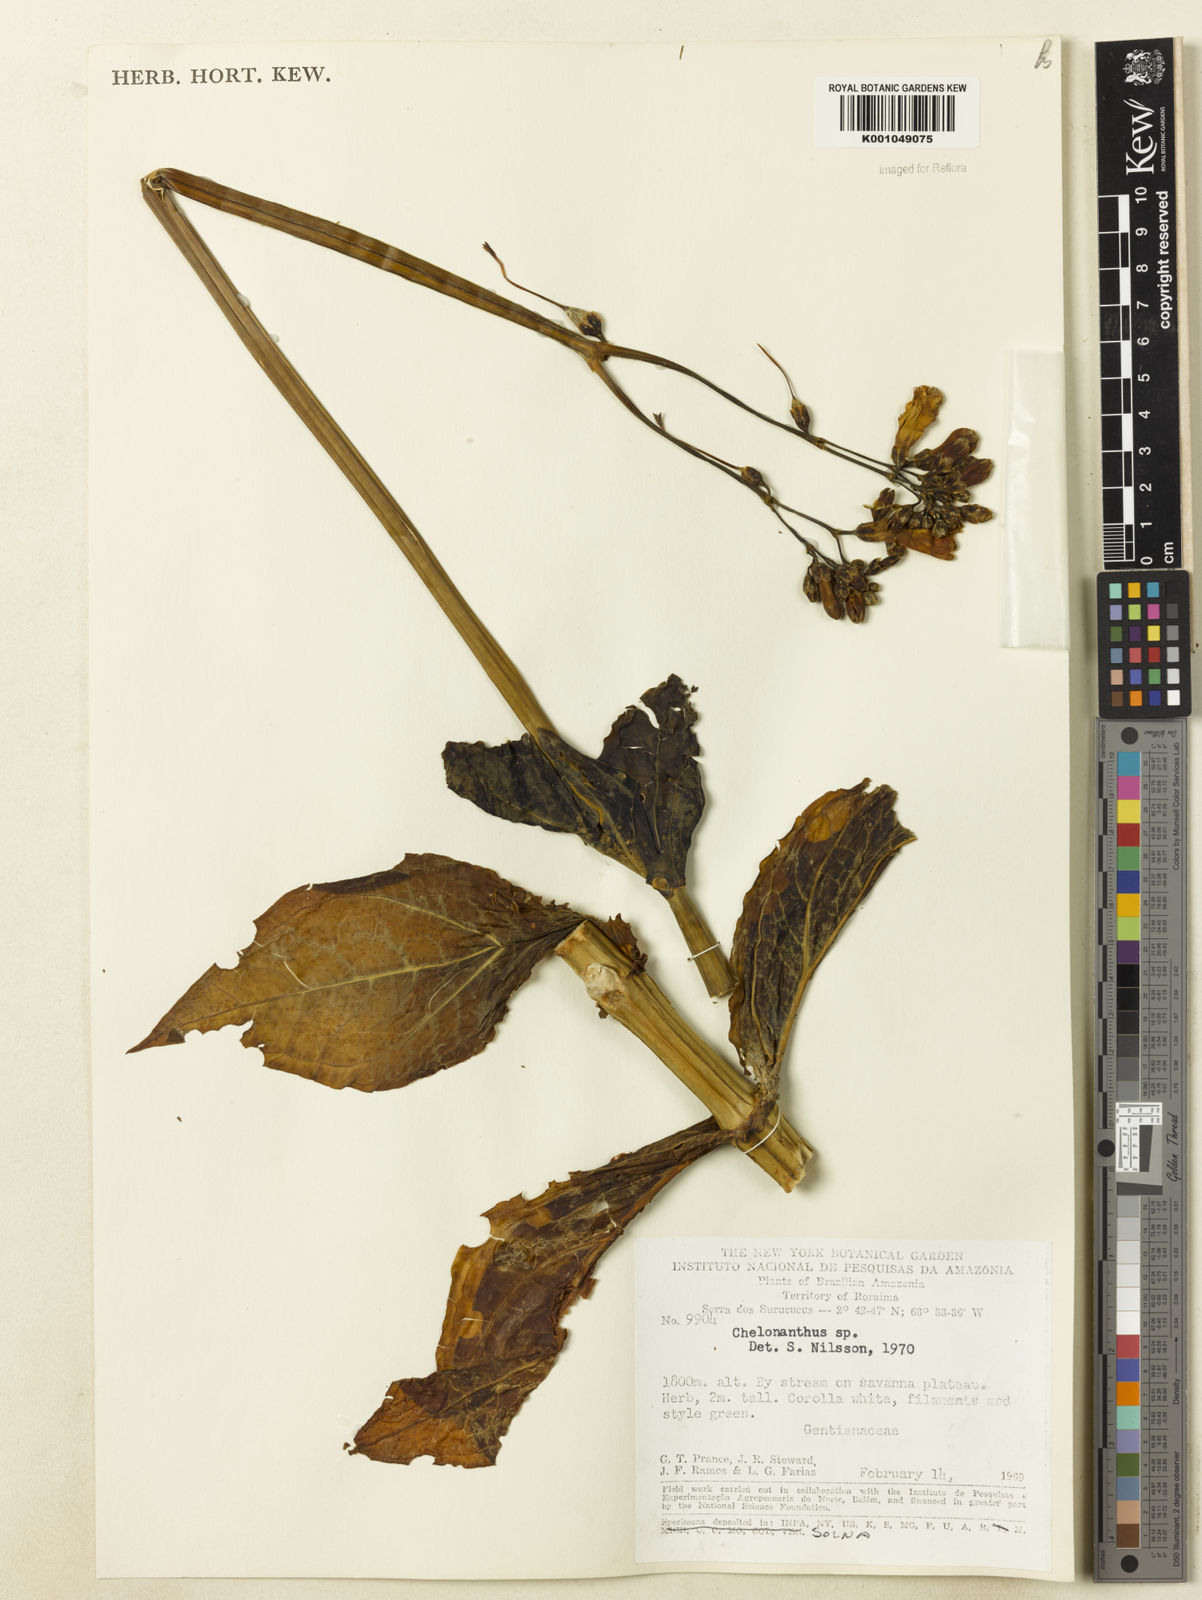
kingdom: Plantae
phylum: Tracheophyta
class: Magnoliopsida
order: Gentianales
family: Gentianaceae
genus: Chelonanthus
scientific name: Chelonanthus
